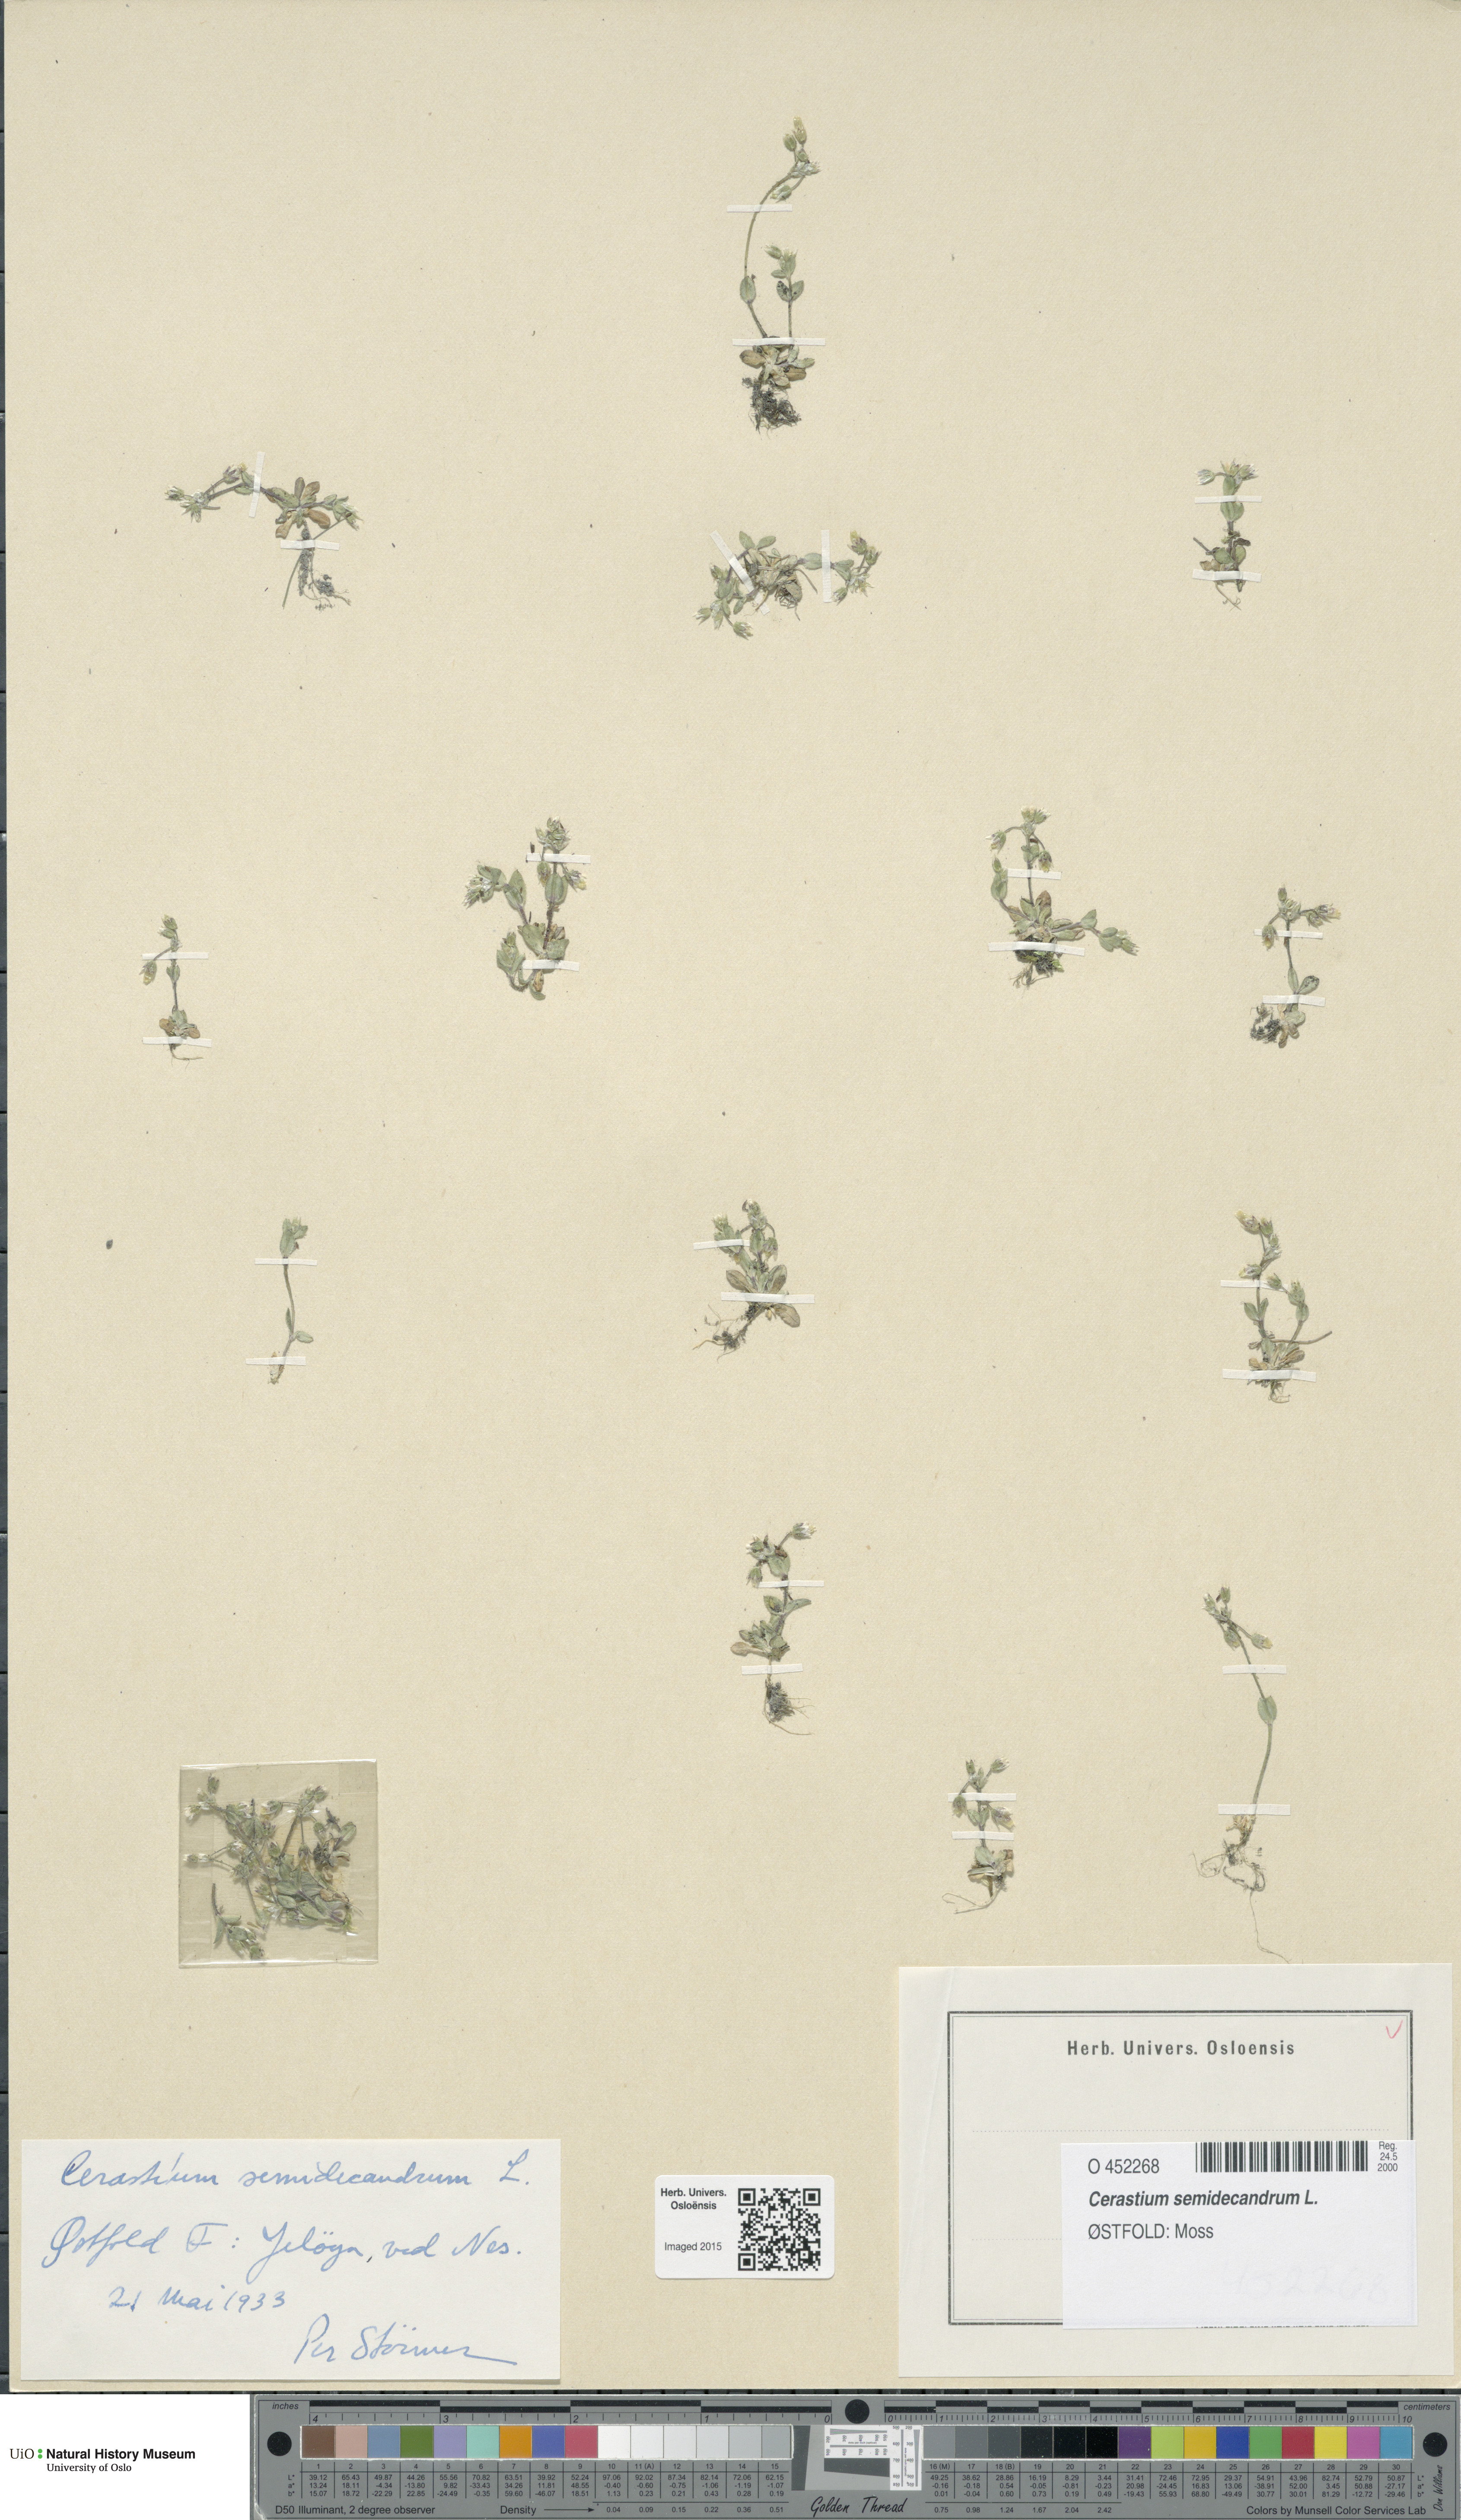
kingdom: Plantae
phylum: Tracheophyta
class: Magnoliopsida
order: Caryophyllales
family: Caryophyllaceae
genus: Cerastium
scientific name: Cerastium semidecandrum
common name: Little mouse-ear
